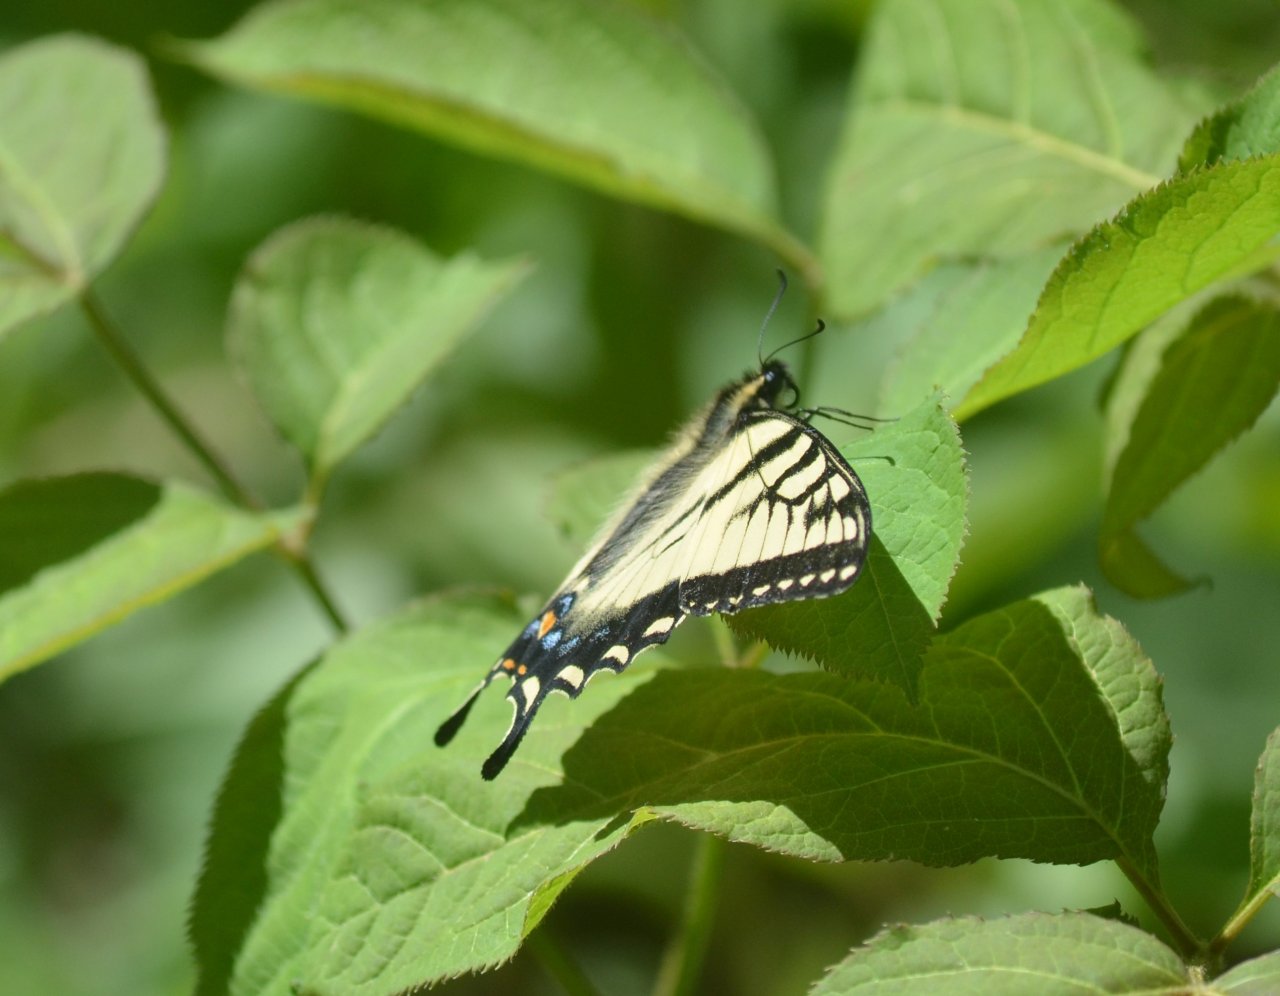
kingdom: Animalia
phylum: Arthropoda
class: Insecta
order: Lepidoptera
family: Papilionidae
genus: Pterourus
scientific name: Pterourus canadensis
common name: Canadian Tiger Swallowtail
